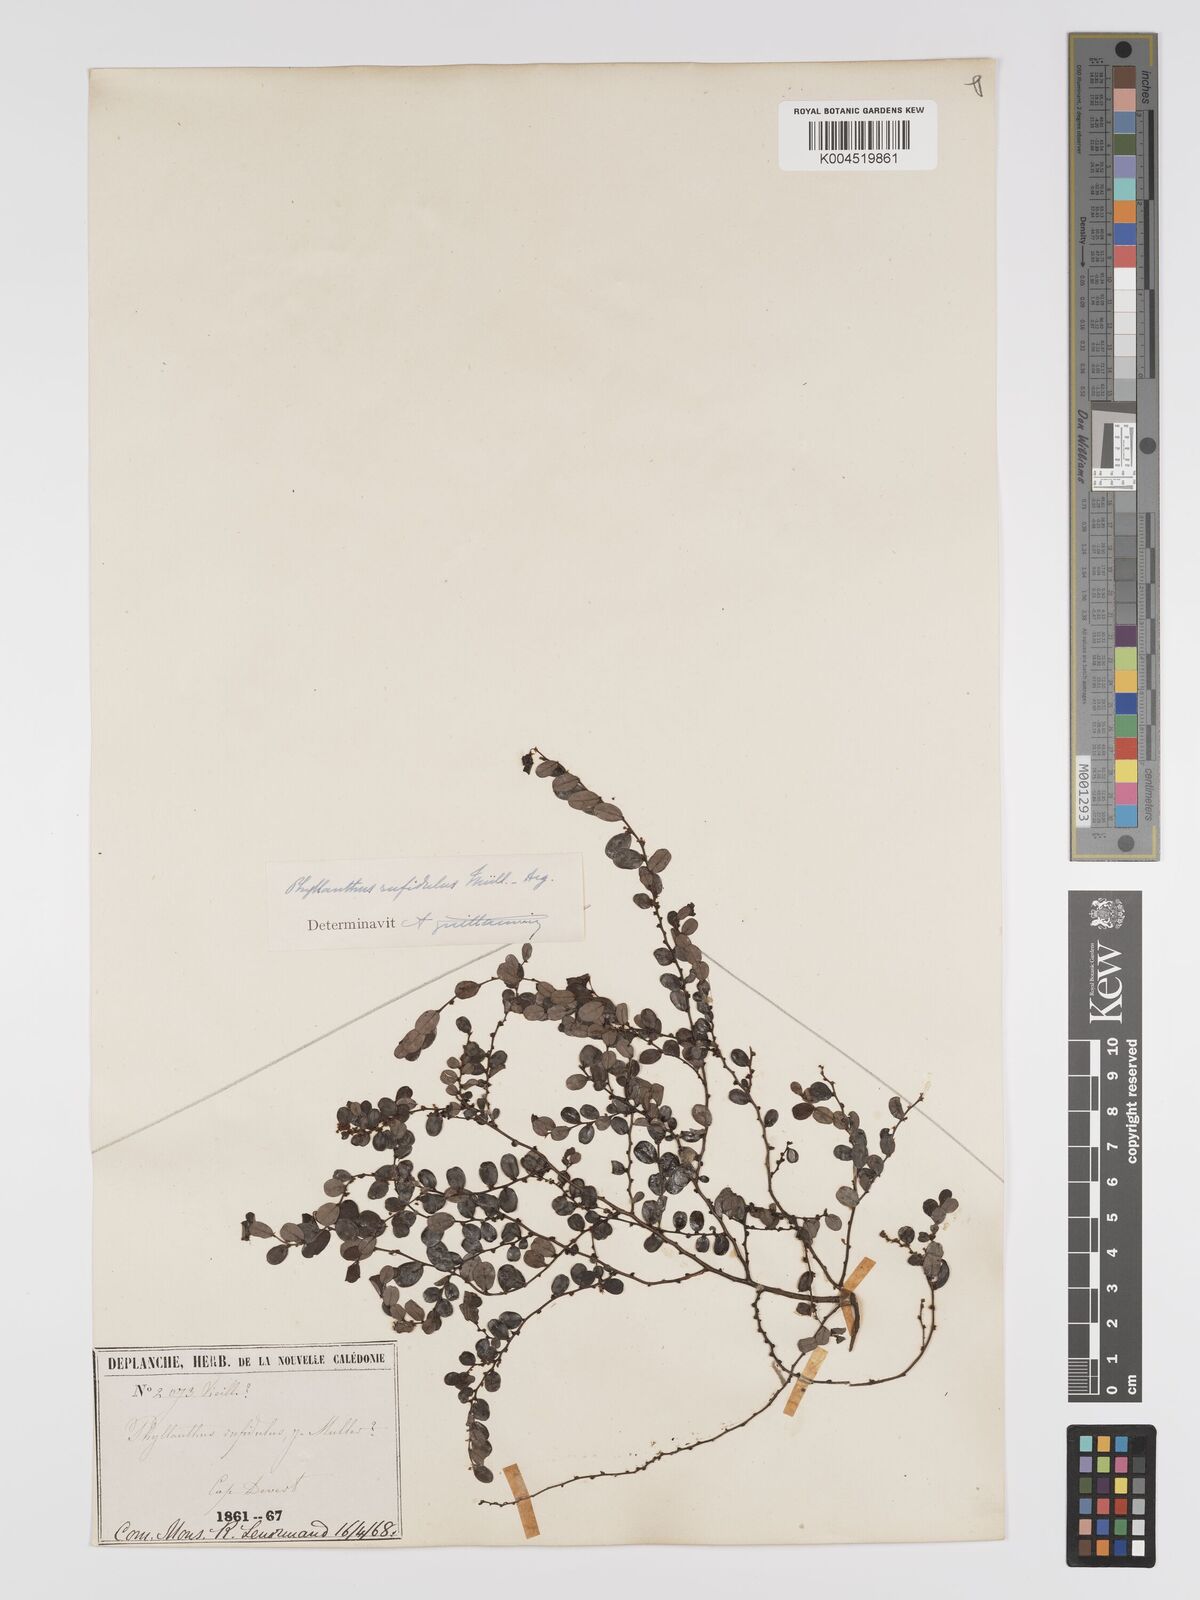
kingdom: Plantae
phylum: Tracheophyta
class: Magnoliopsida
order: Malpighiales
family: Phyllanthaceae
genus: Phyllanthus
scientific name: Phyllanthus chrysanthus
